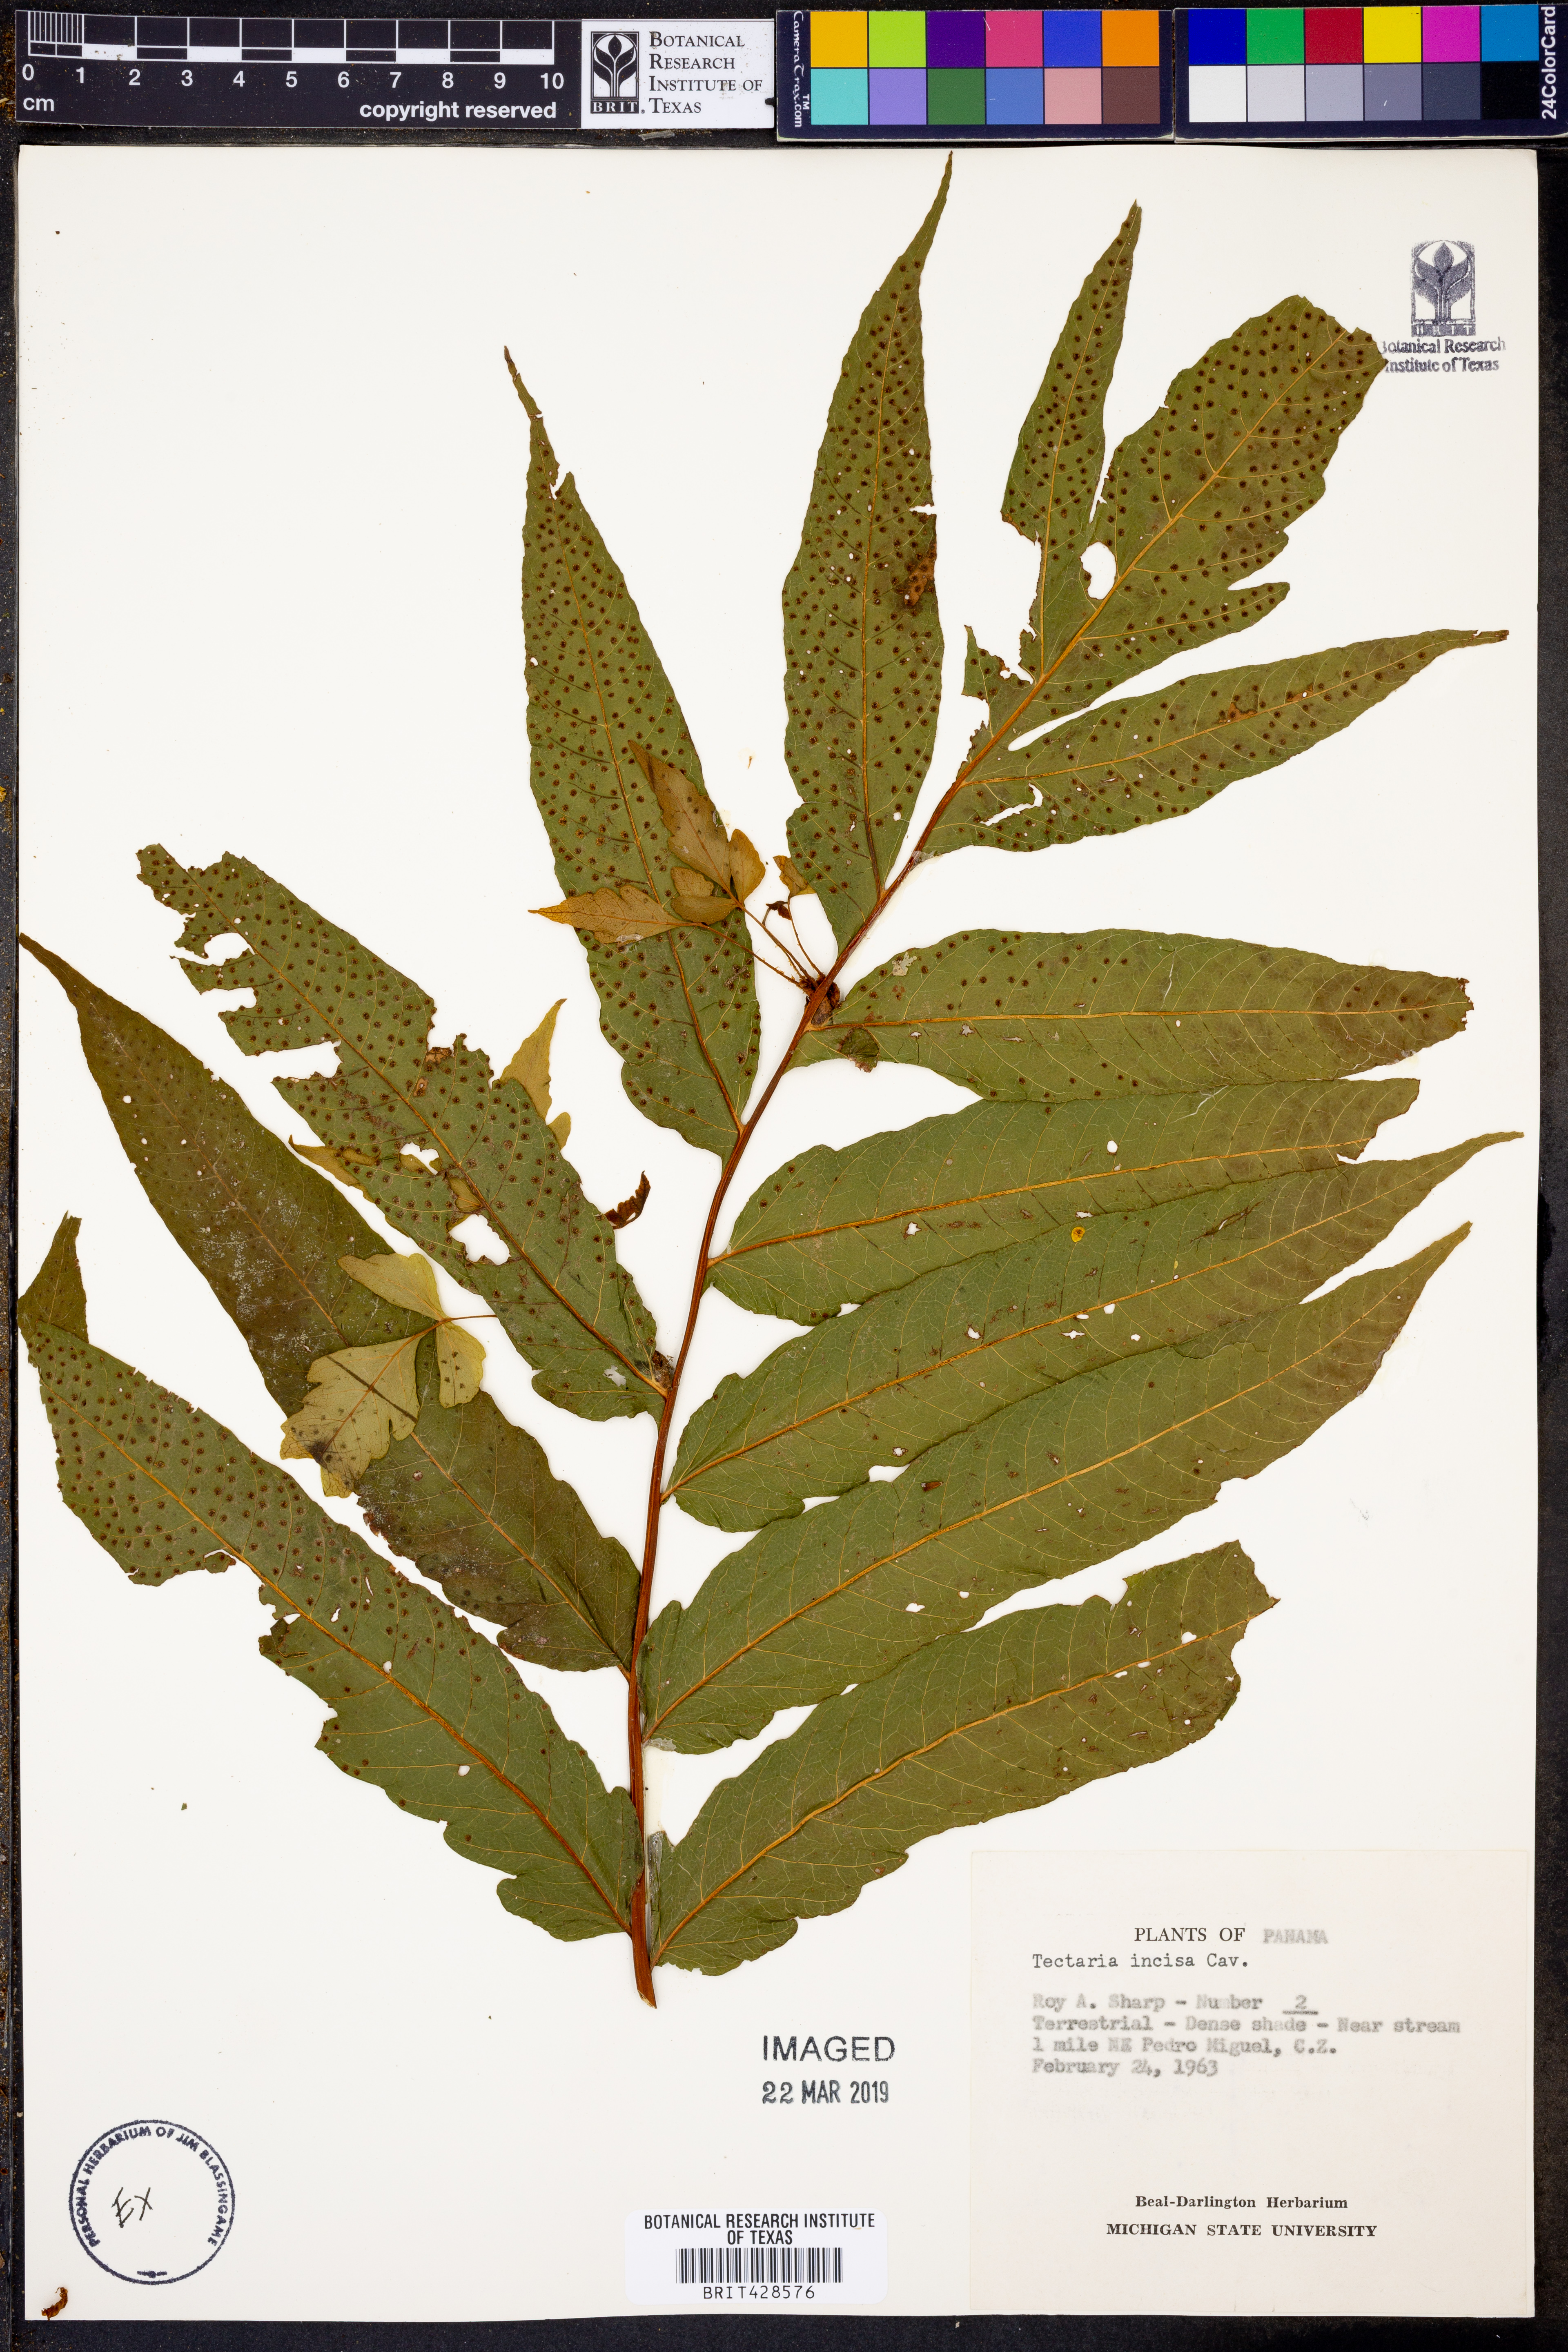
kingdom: Plantae
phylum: Tracheophyta
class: Polypodiopsida
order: Polypodiales
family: Tectariaceae
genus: Tectaria
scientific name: Tectaria incisa
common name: Incised halberd fern
